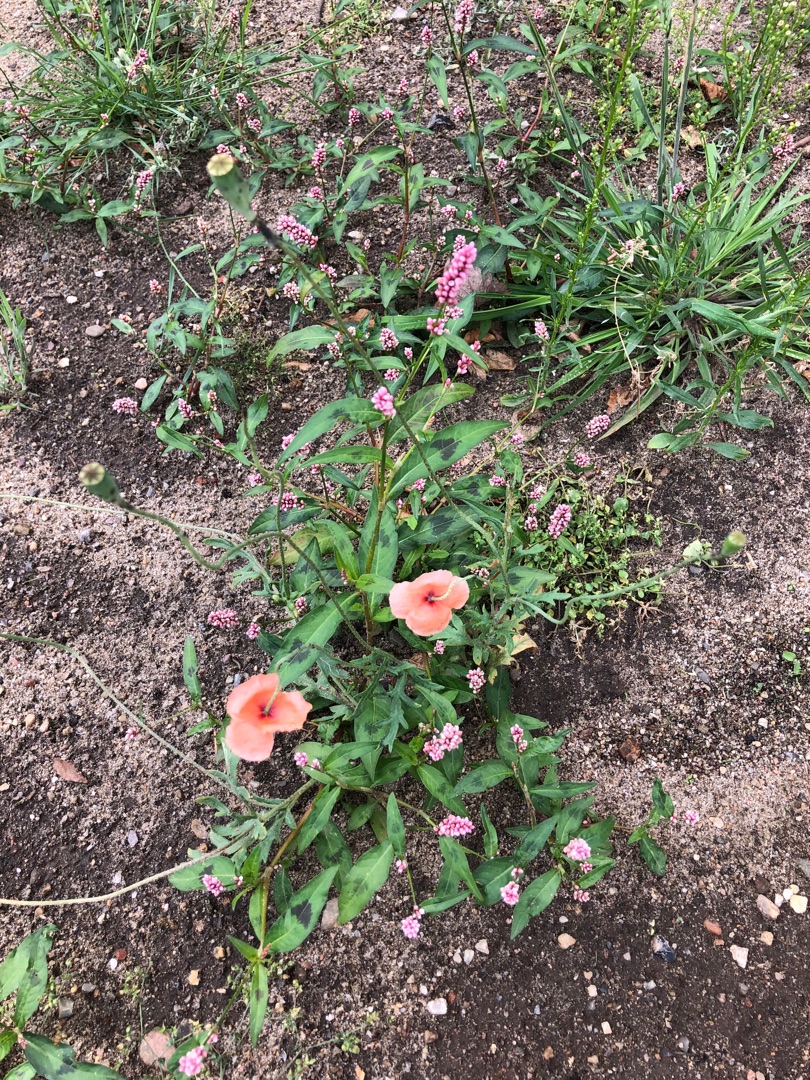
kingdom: Plantae
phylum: Tracheophyta
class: Magnoliopsida
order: Ranunculales
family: Papaveraceae
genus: Papaver
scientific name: Papaver dubium
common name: Gærde-valmue
